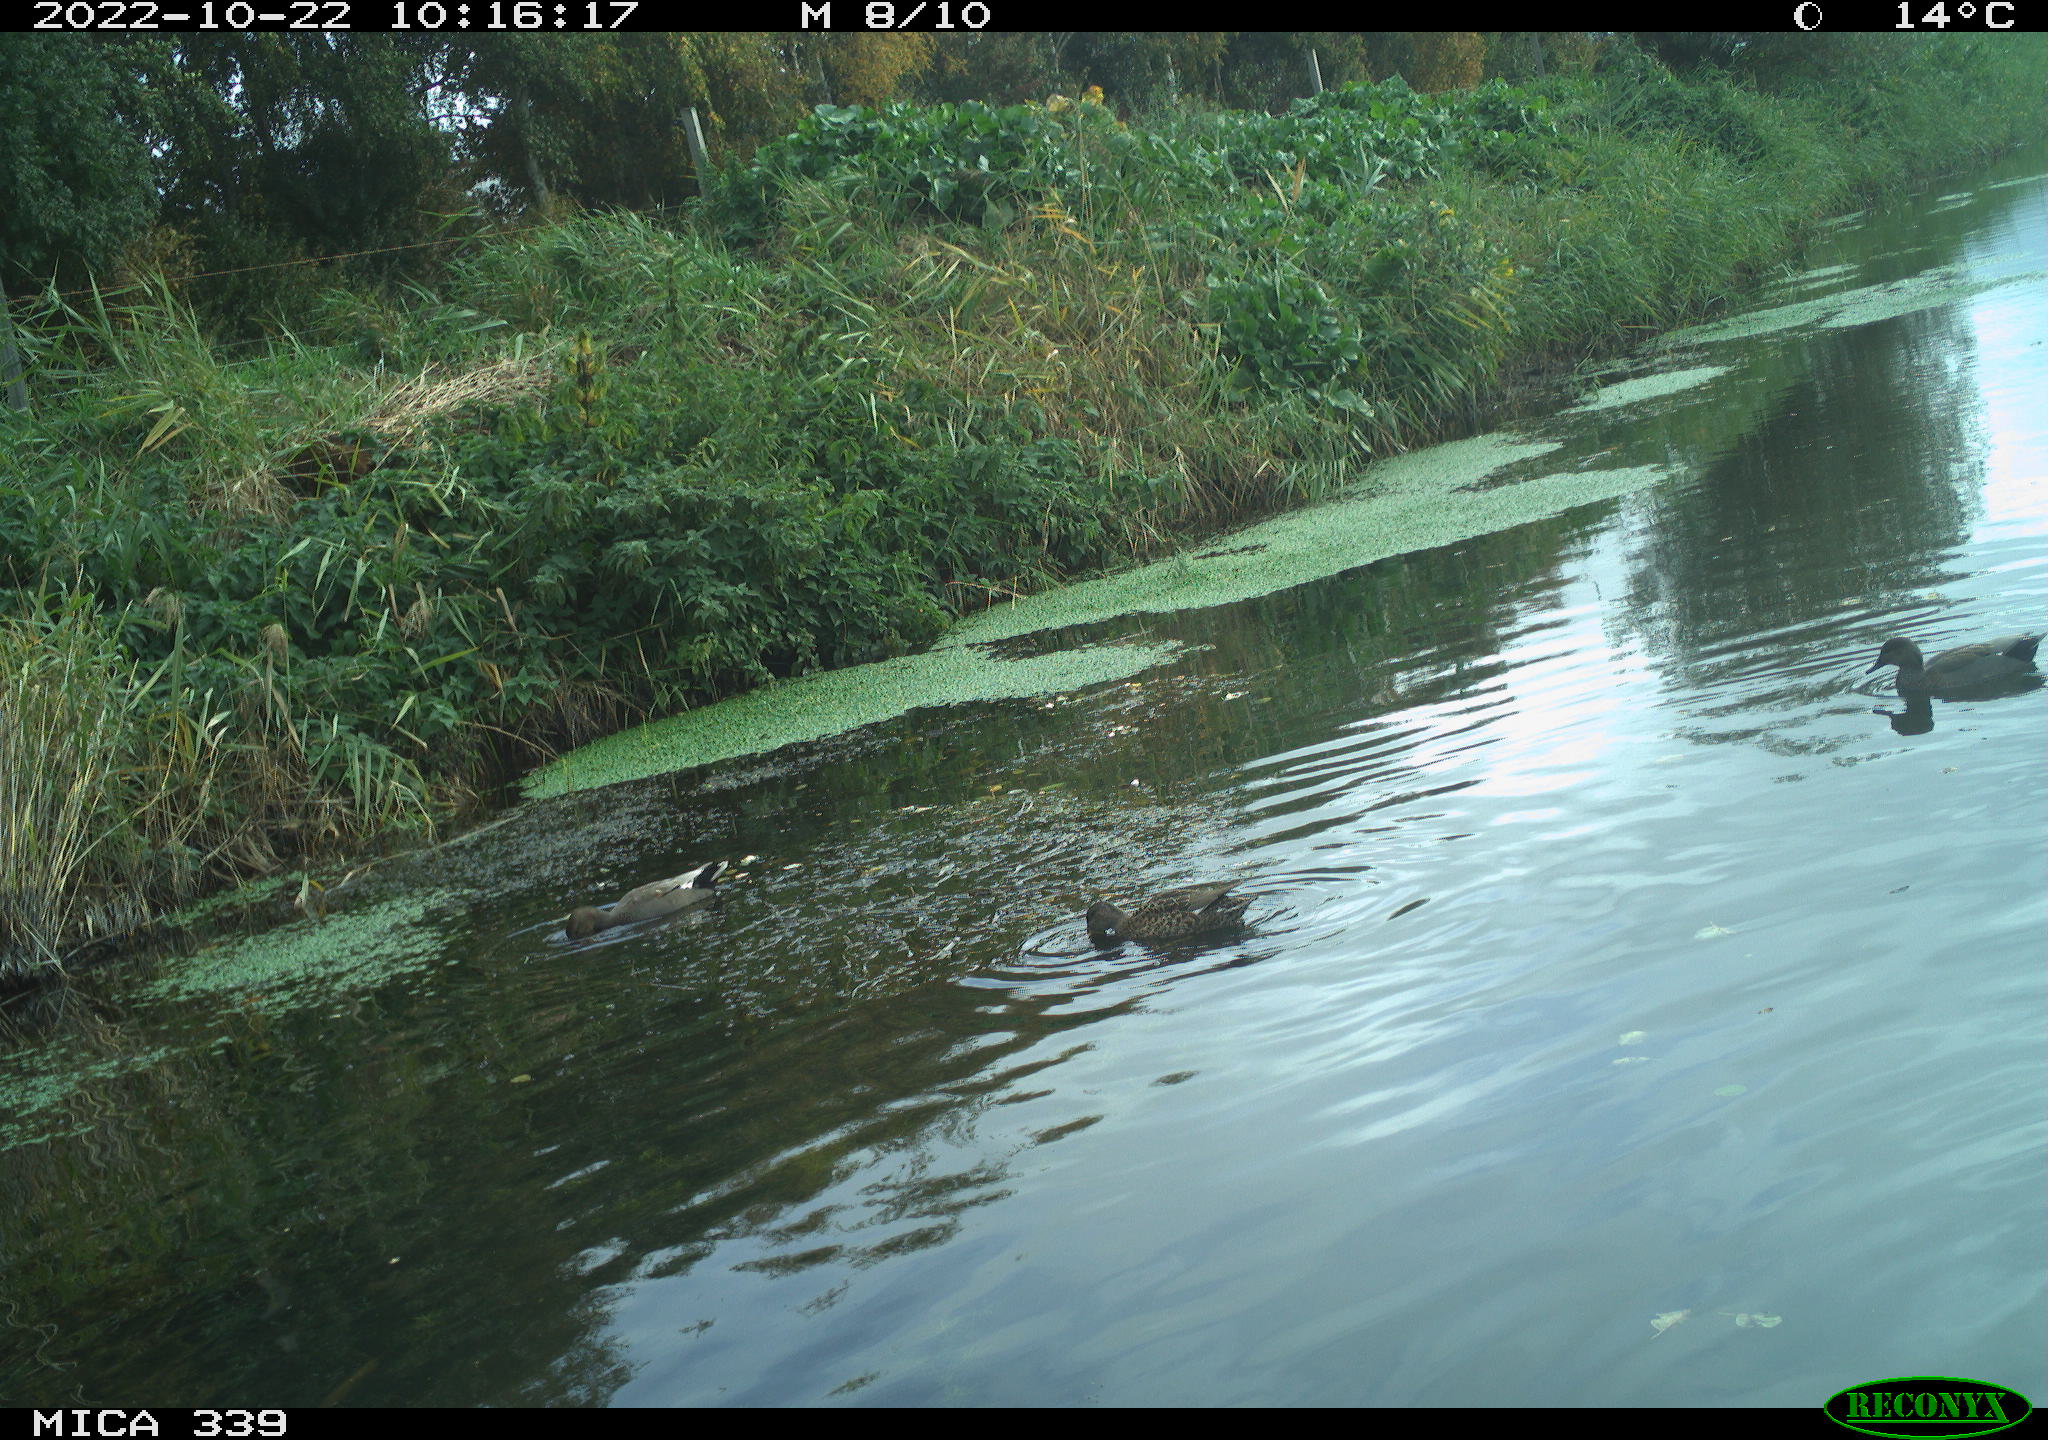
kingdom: Animalia
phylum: Chordata
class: Aves
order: Anseriformes
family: Anatidae
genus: Mareca
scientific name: Mareca strepera
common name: Gadwall
